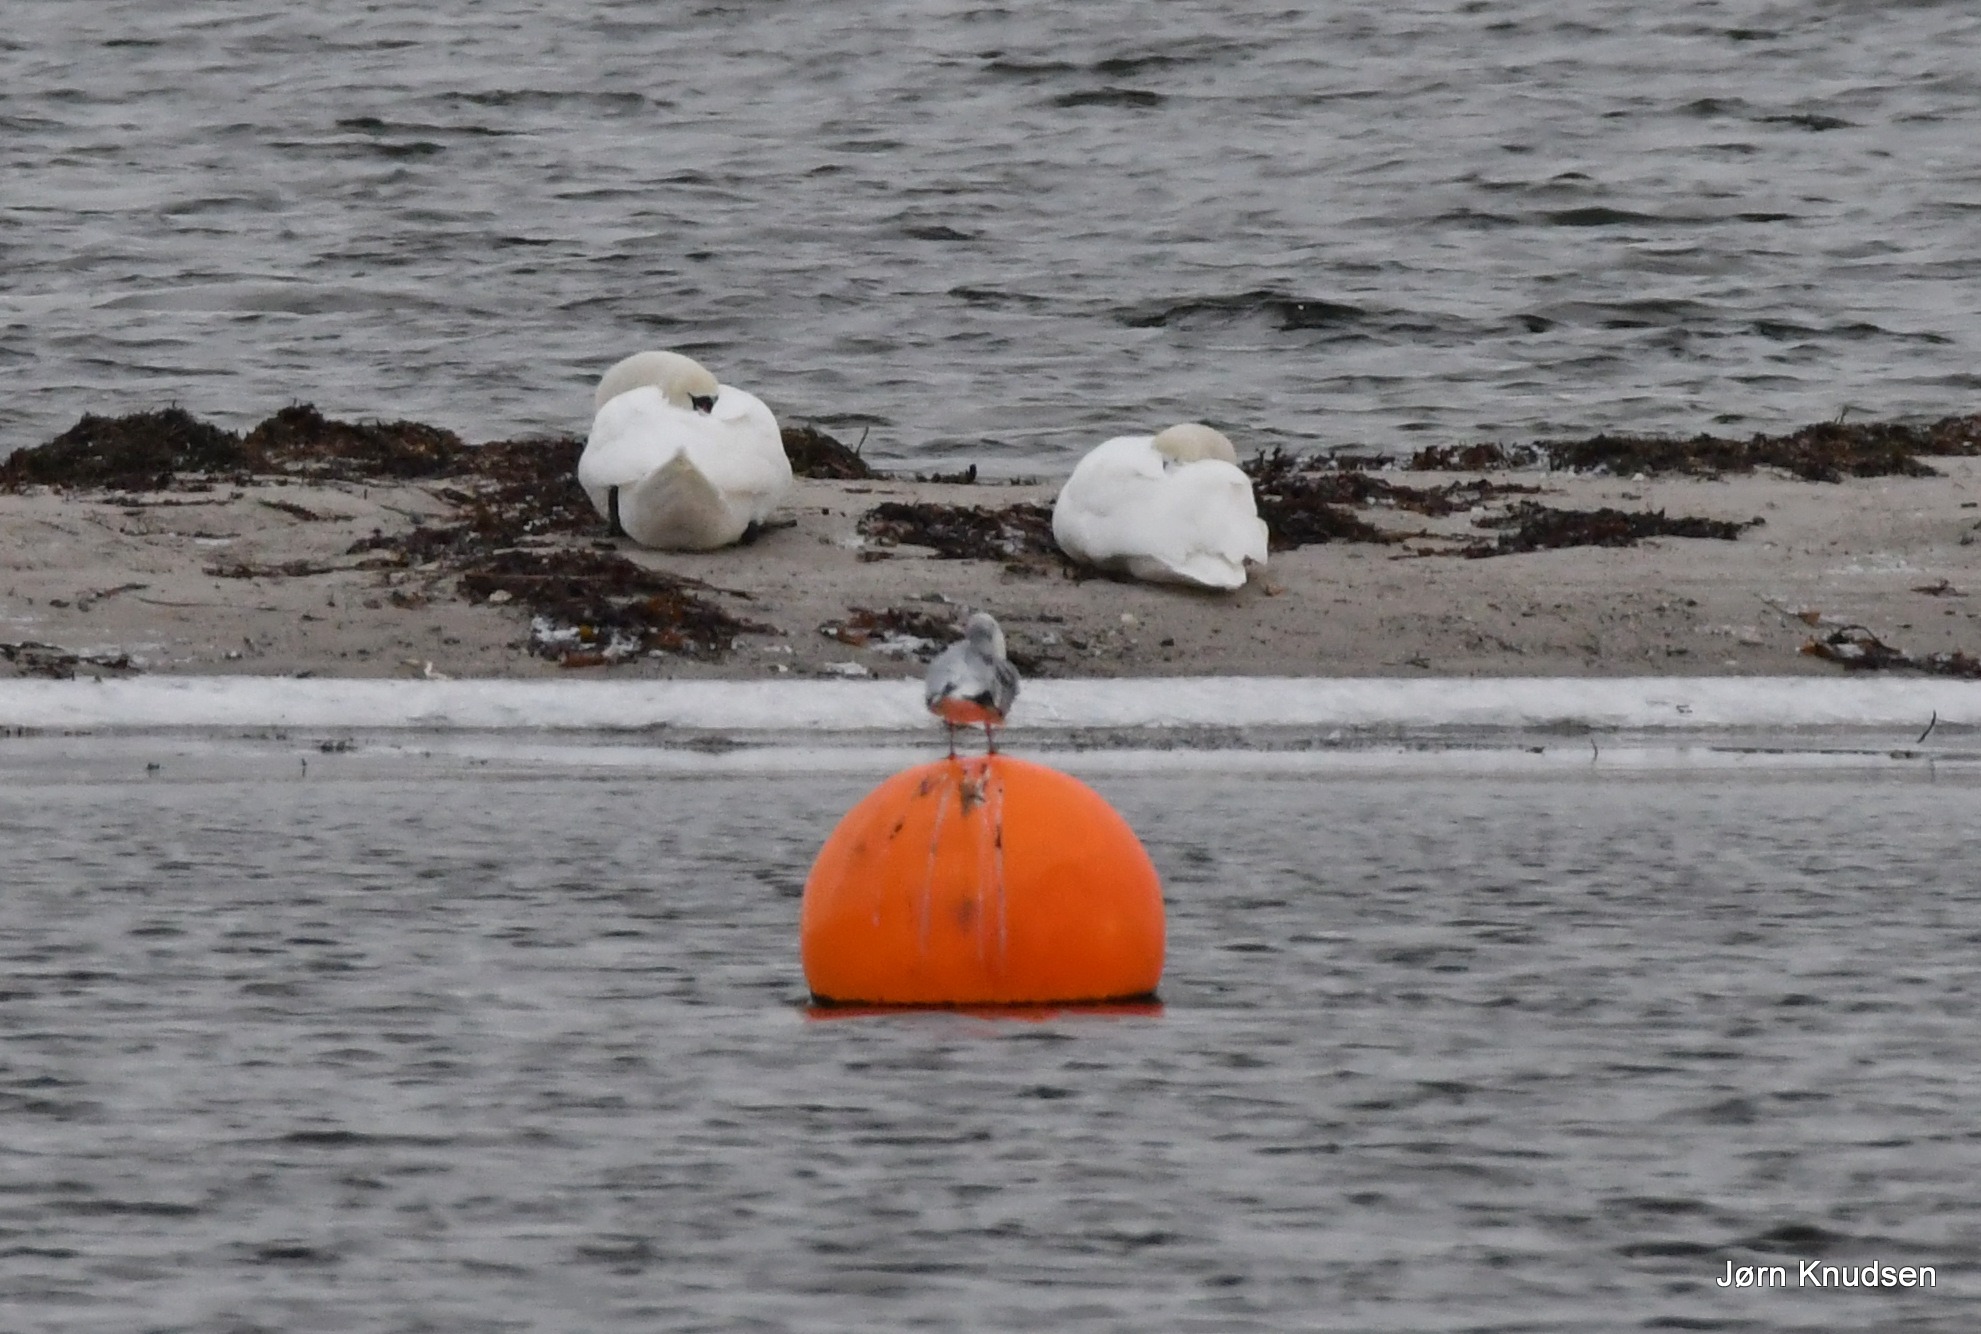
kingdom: Animalia
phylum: Chordata
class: Aves
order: Anseriformes
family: Anatidae
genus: Cygnus
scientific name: Cygnus olor
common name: Knopsvane
